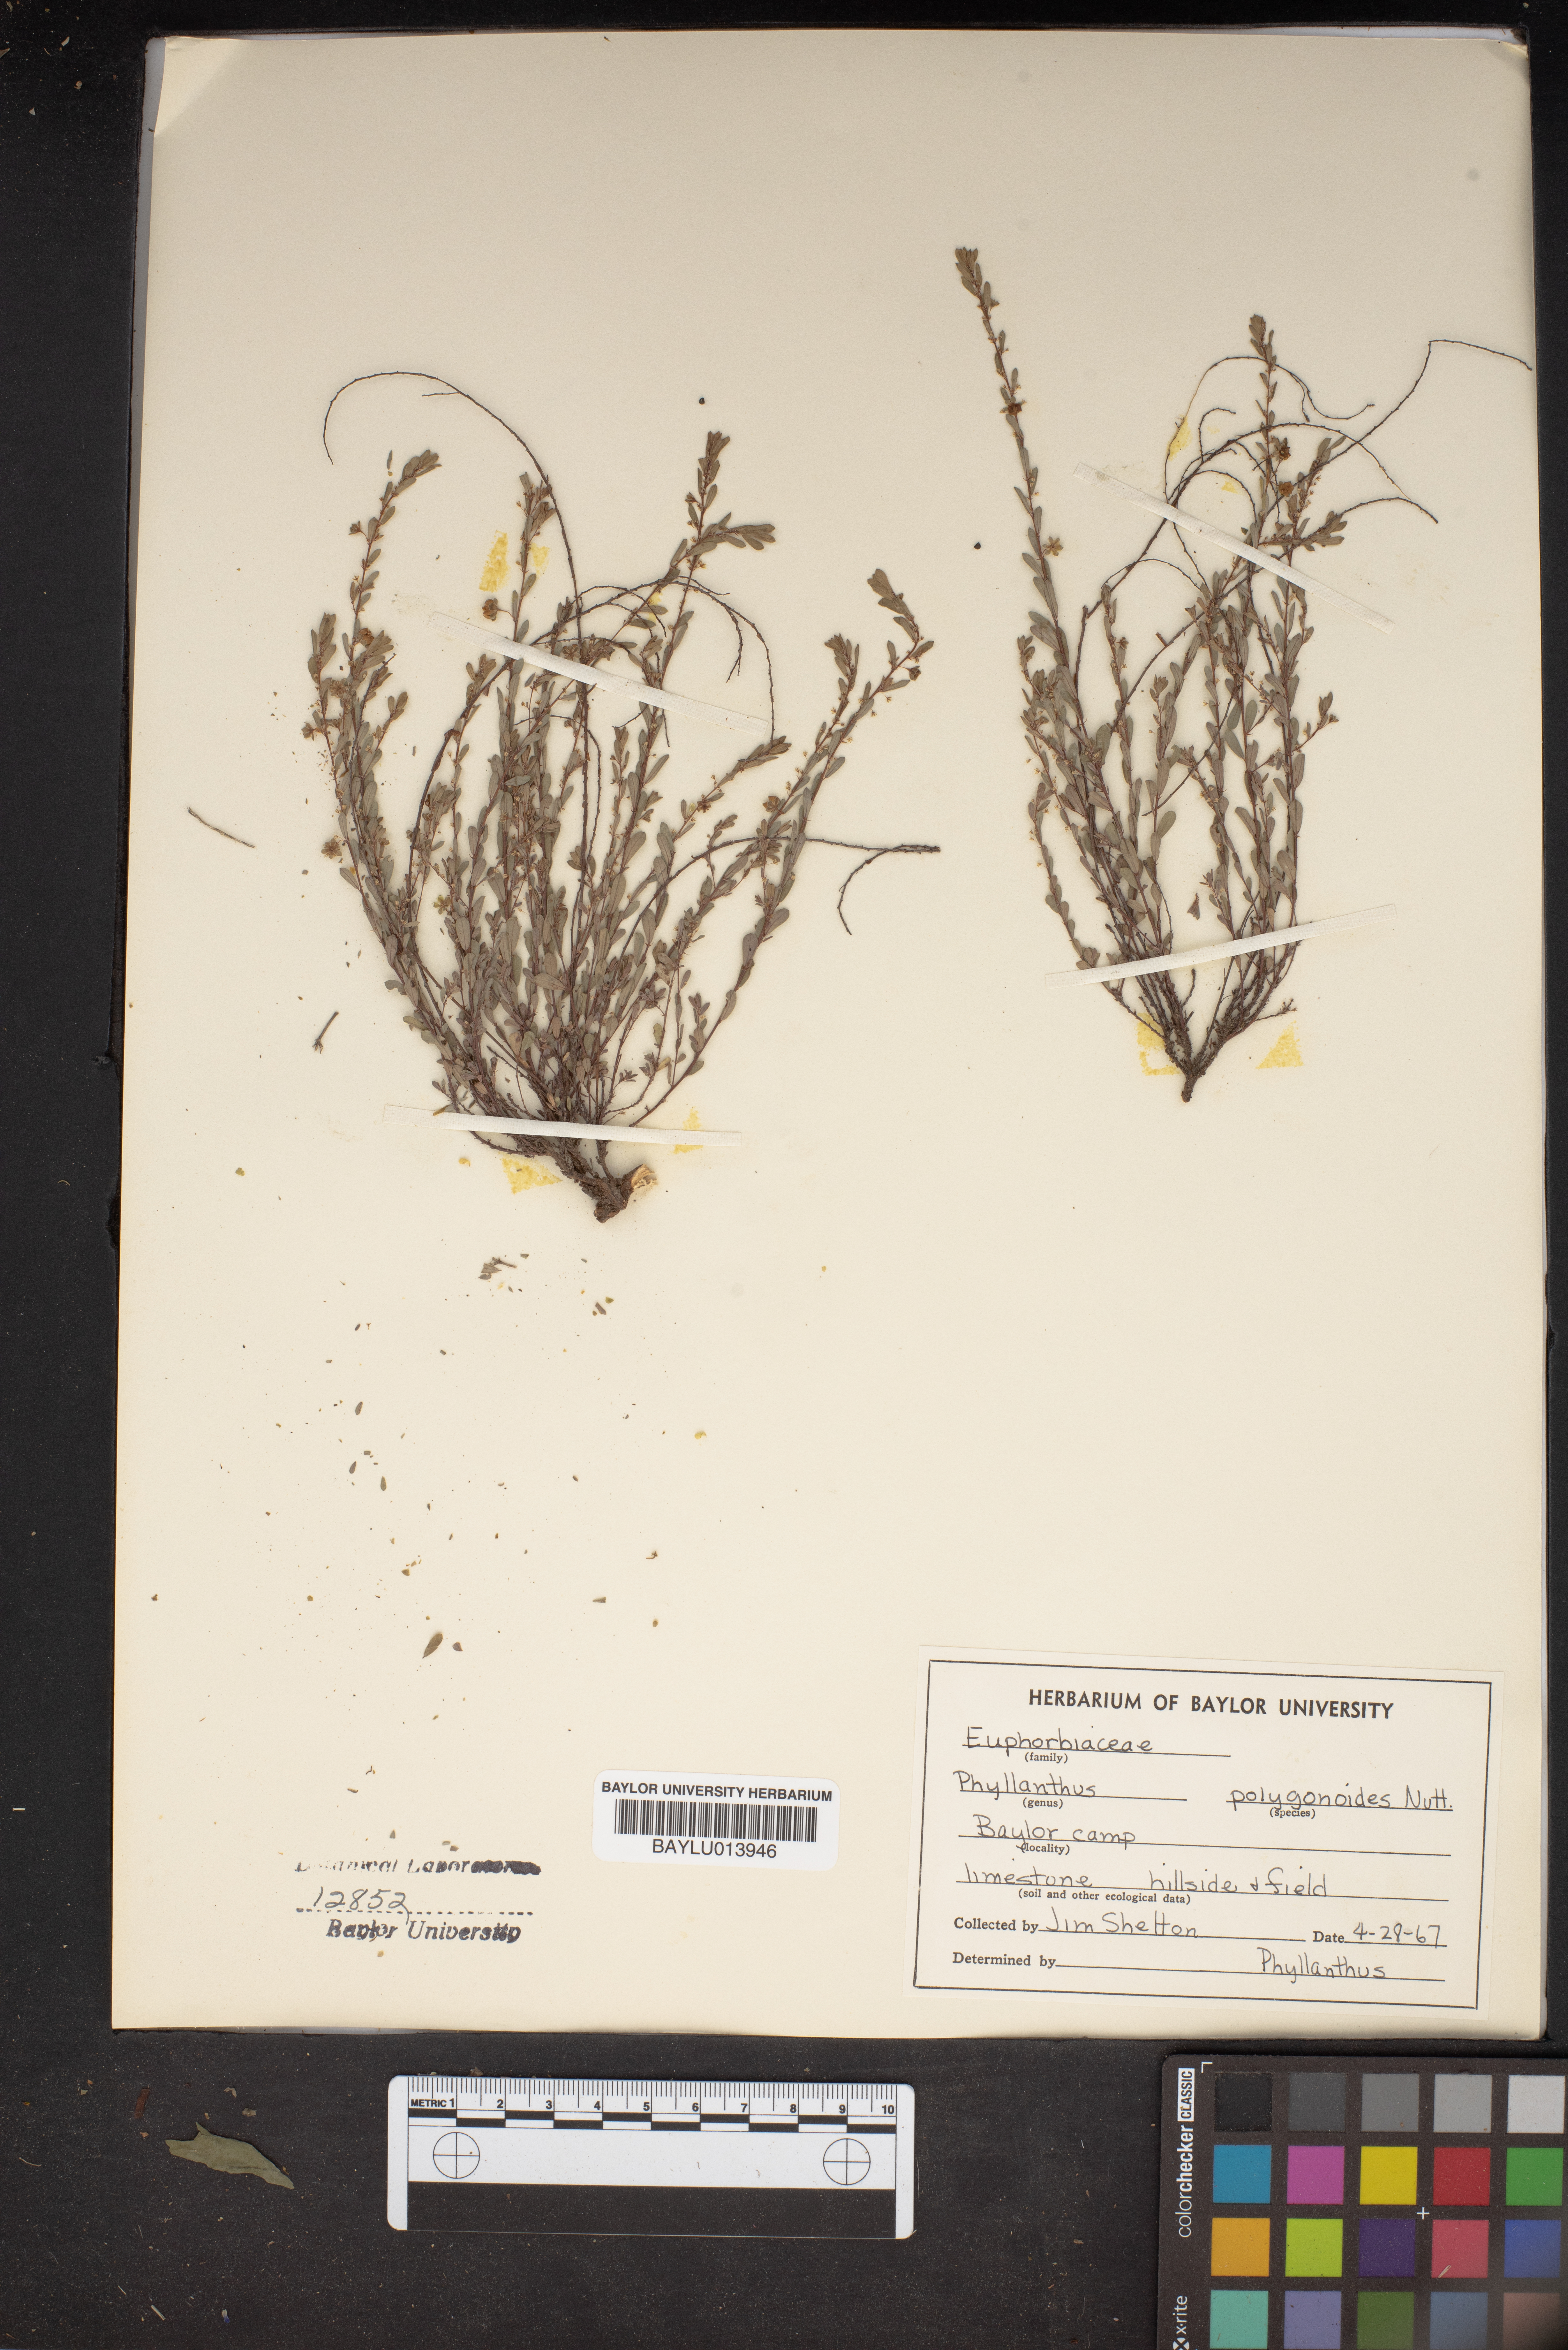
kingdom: Plantae
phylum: Tracheophyta
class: Magnoliopsida
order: Malpighiales
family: Phyllanthaceae
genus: Phyllanthus
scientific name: Phyllanthus polygonoides
